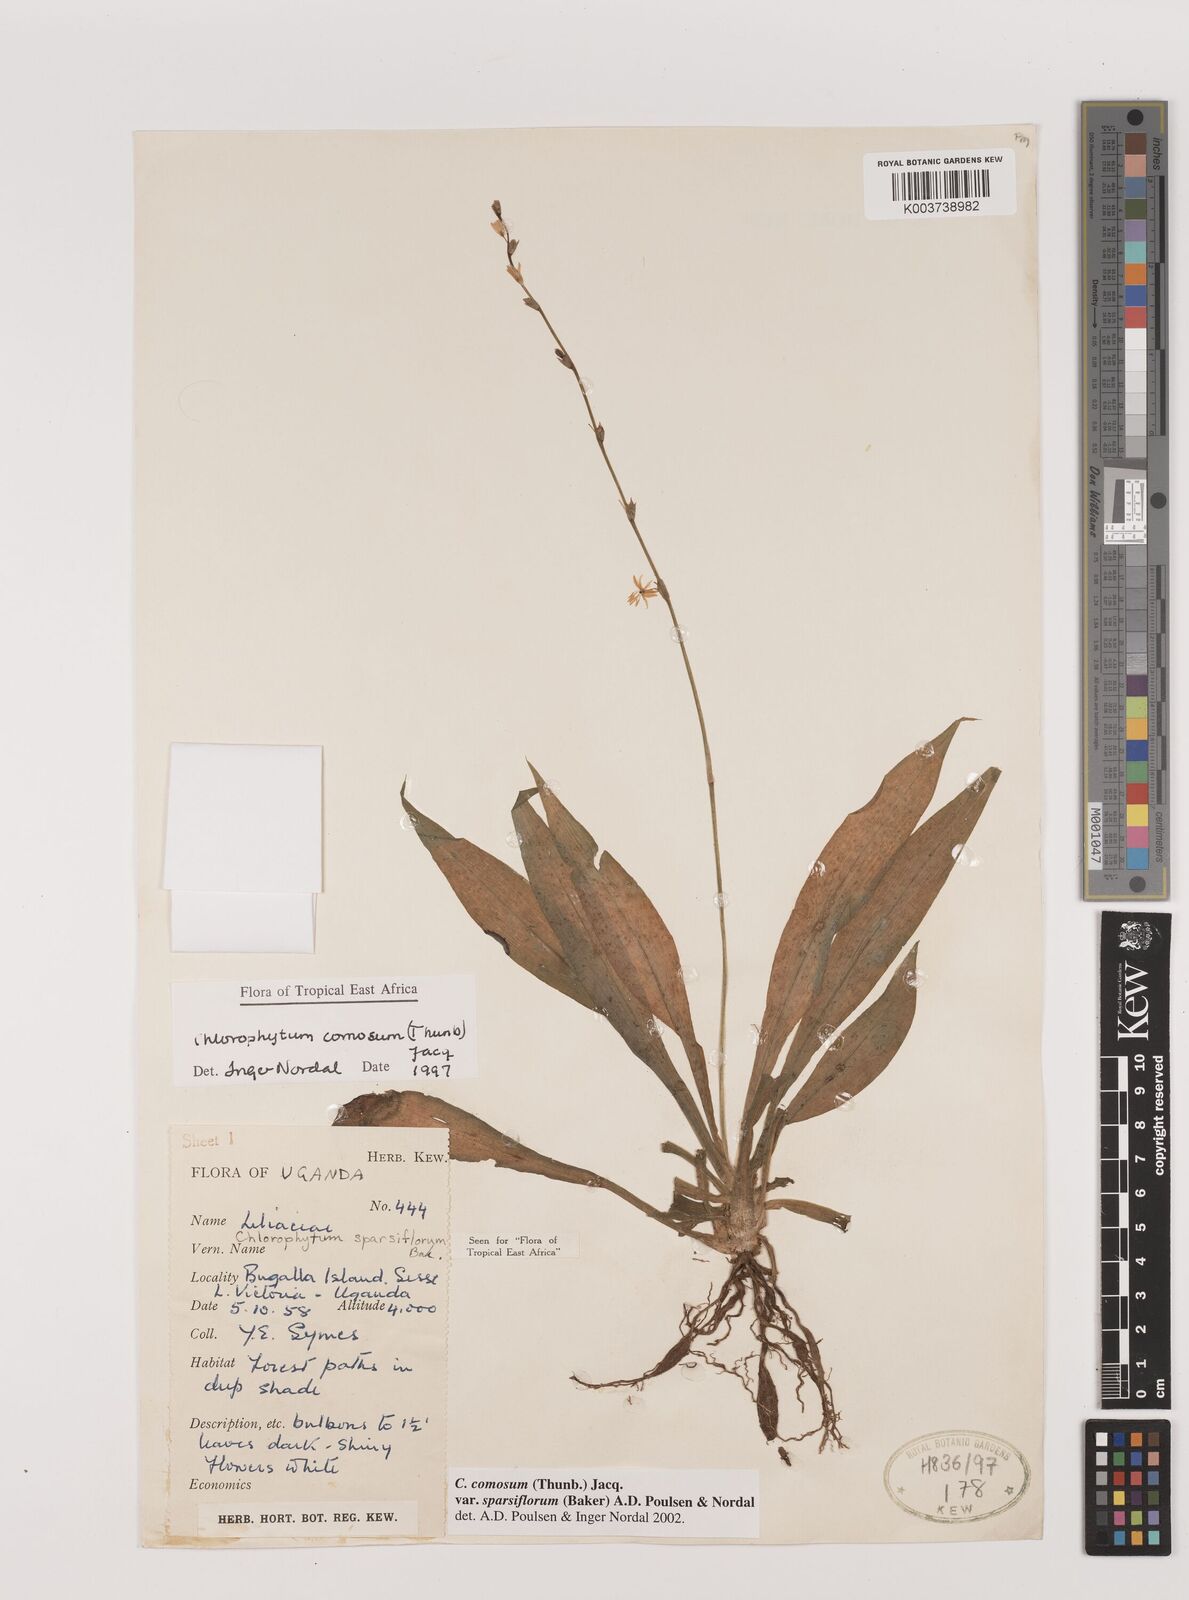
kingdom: Plantae
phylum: Tracheophyta
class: Liliopsida
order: Asparagales
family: Asparagaceae
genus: Chlorophytum
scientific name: Chlorophytum sparsiflorum
